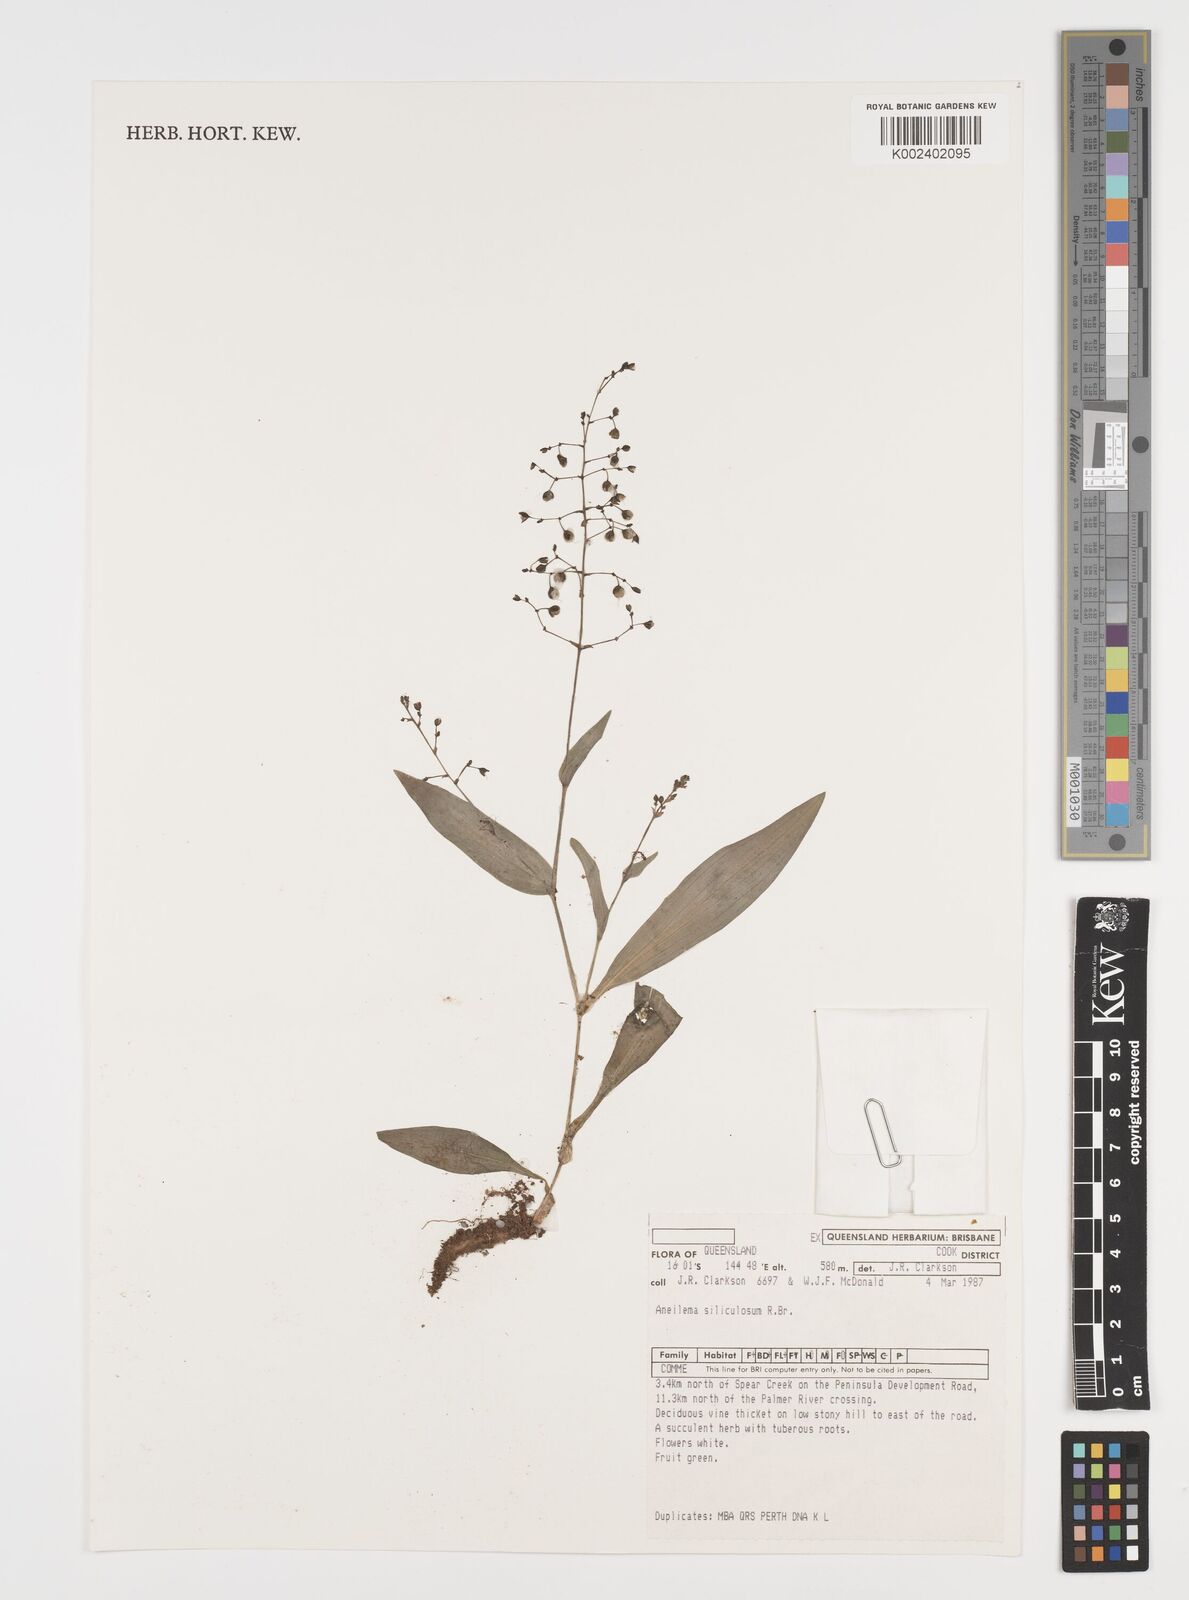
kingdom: Plantae
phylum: Tracheophyta
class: Liliopsida
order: Commelinales
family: Commelinaceae
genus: Aneilema
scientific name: Aneilema siliculosum
